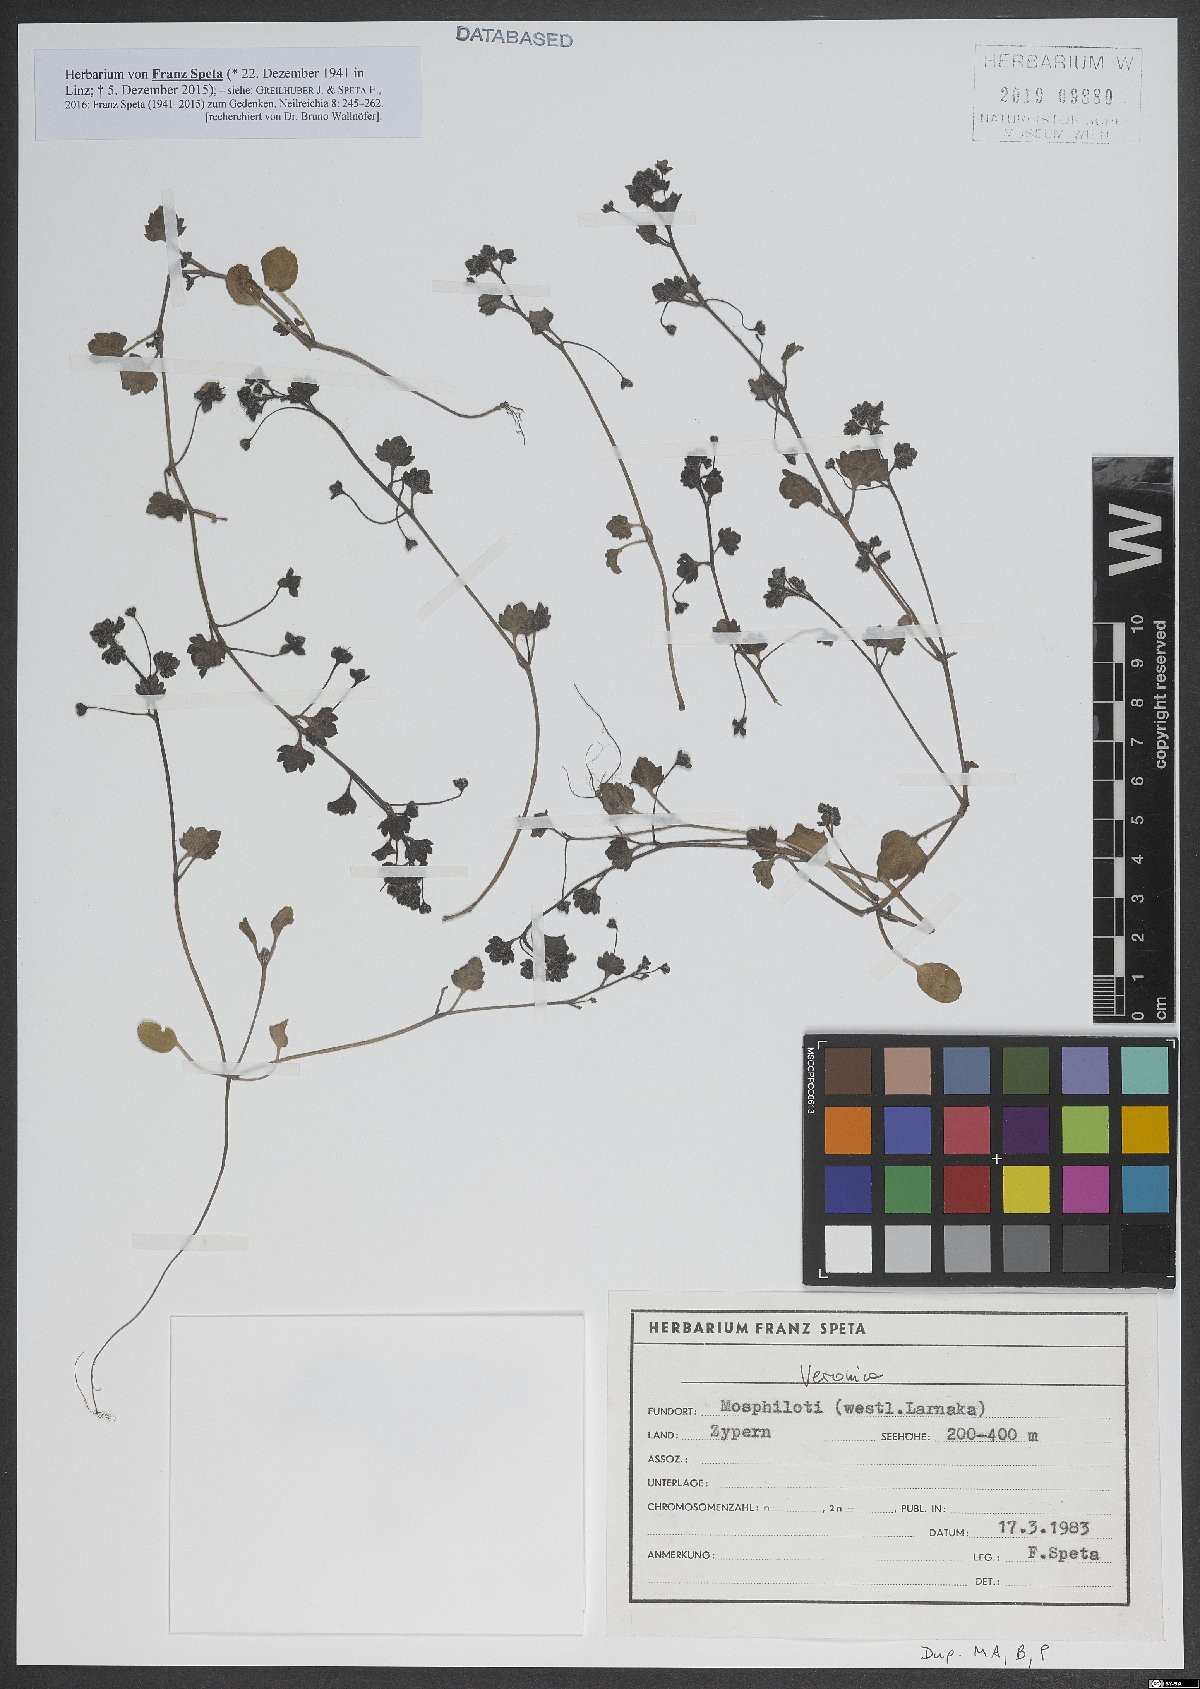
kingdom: Plantae
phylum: Tracheophyta
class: Magnoliopsida
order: Lamiales
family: Plantaginaceae
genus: Veronica
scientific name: Veronica
